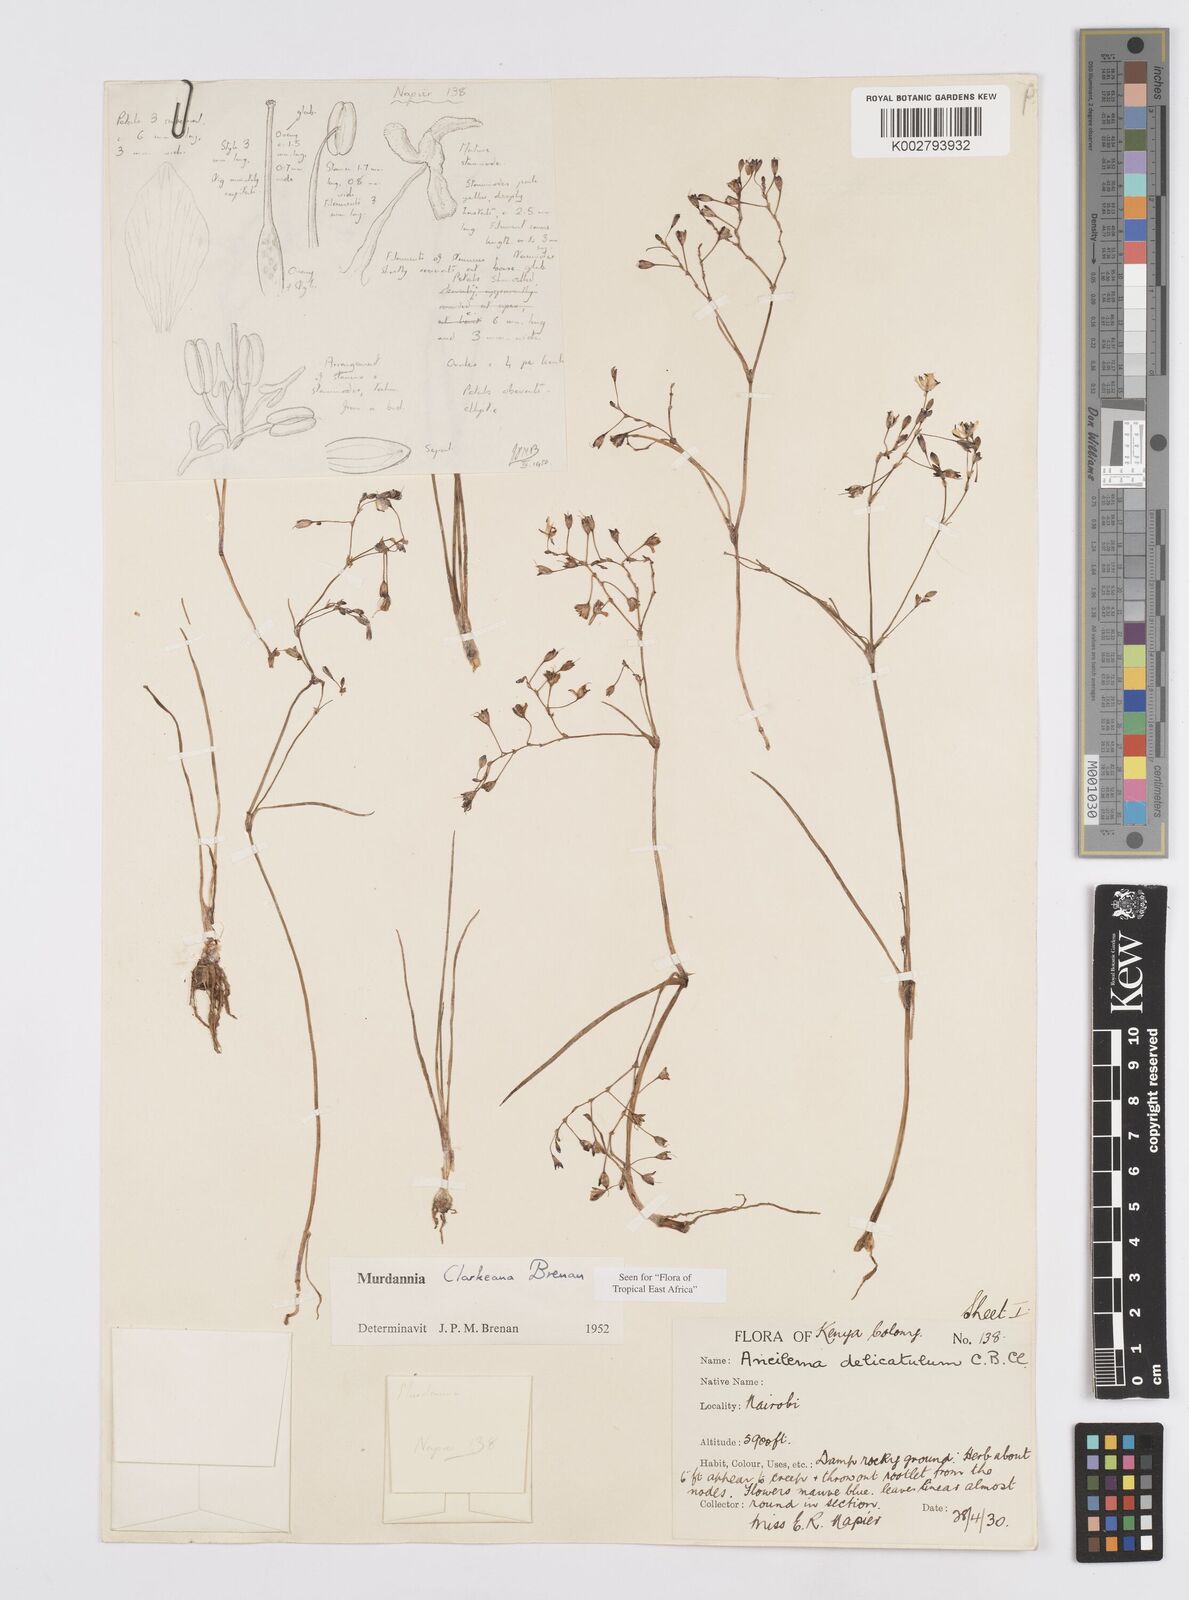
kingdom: Plantae
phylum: Tracheophyta
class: Liliopsida
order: Commelinales
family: Commelinaceae
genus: Murdannia
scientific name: Murdannia clarkeana
